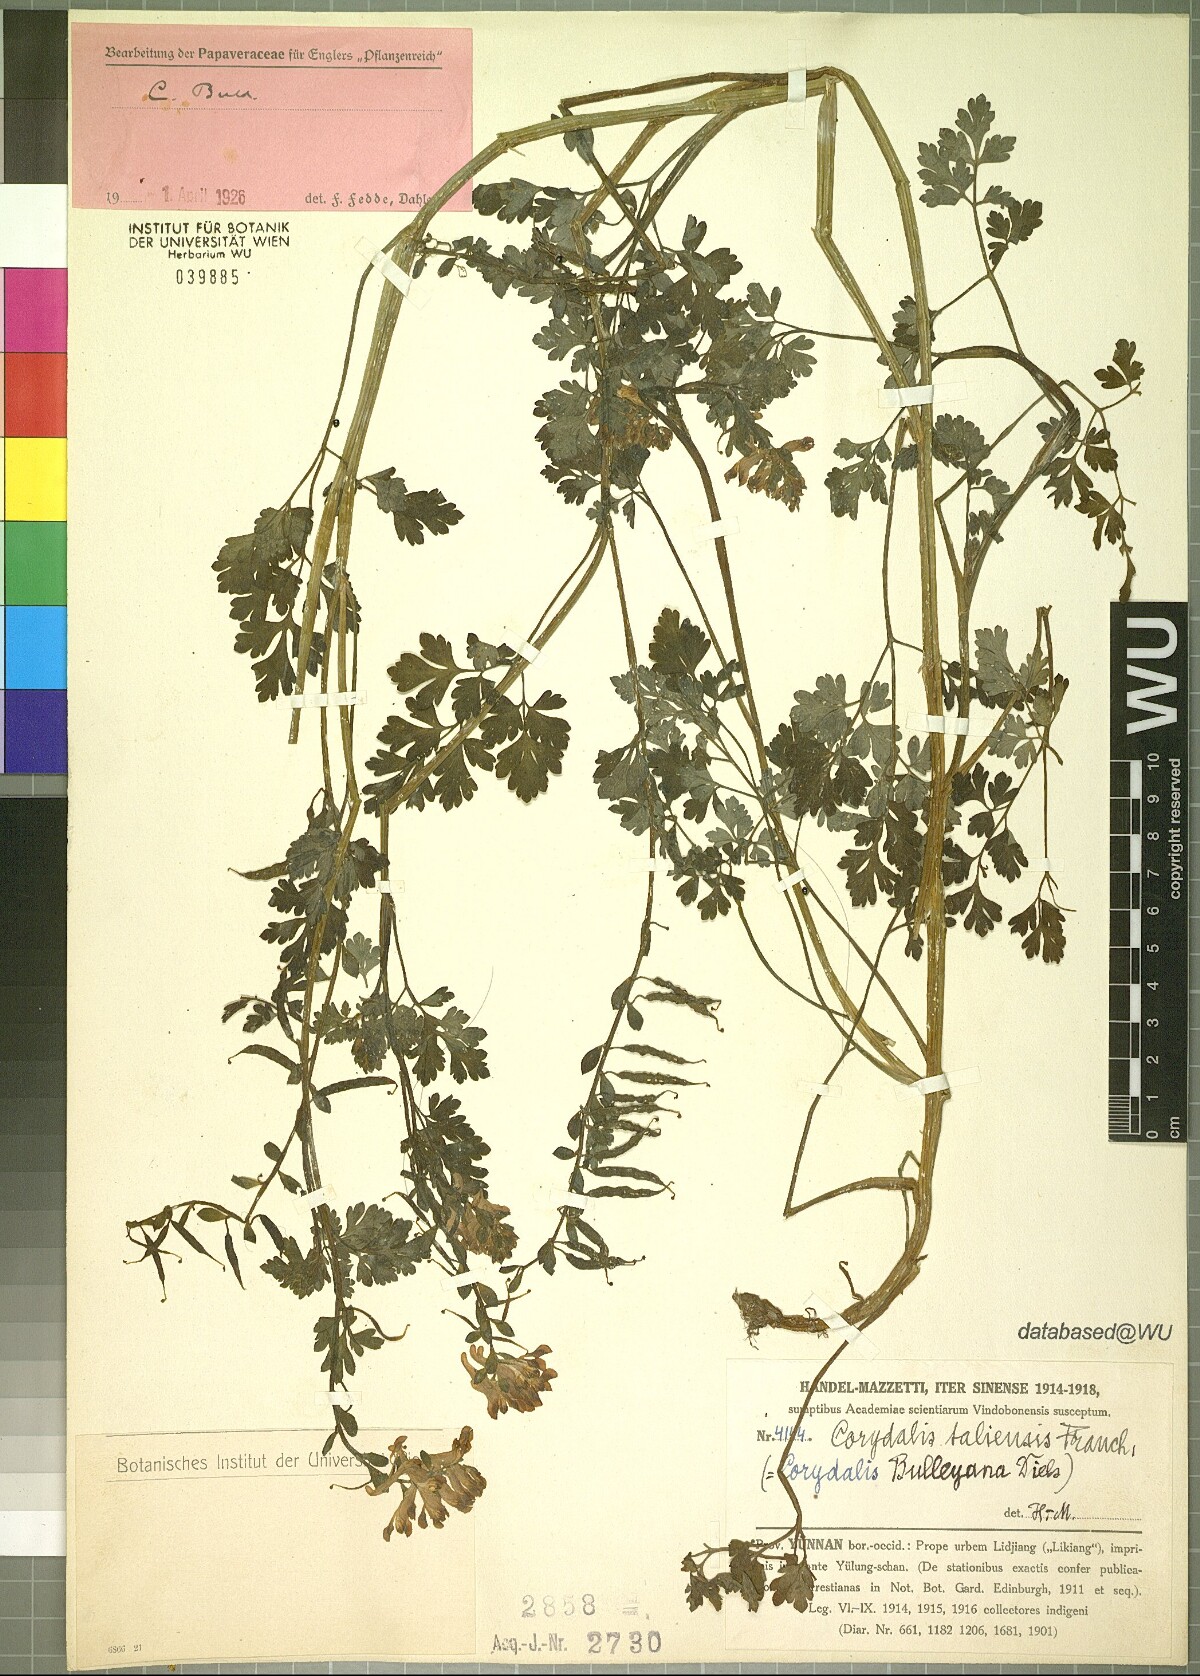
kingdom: Plantae
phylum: Tracheophyta
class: Magnoliopsida
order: Ranunculales
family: Papaveraceae
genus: Corydalis
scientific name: Corydalis bulleyana
